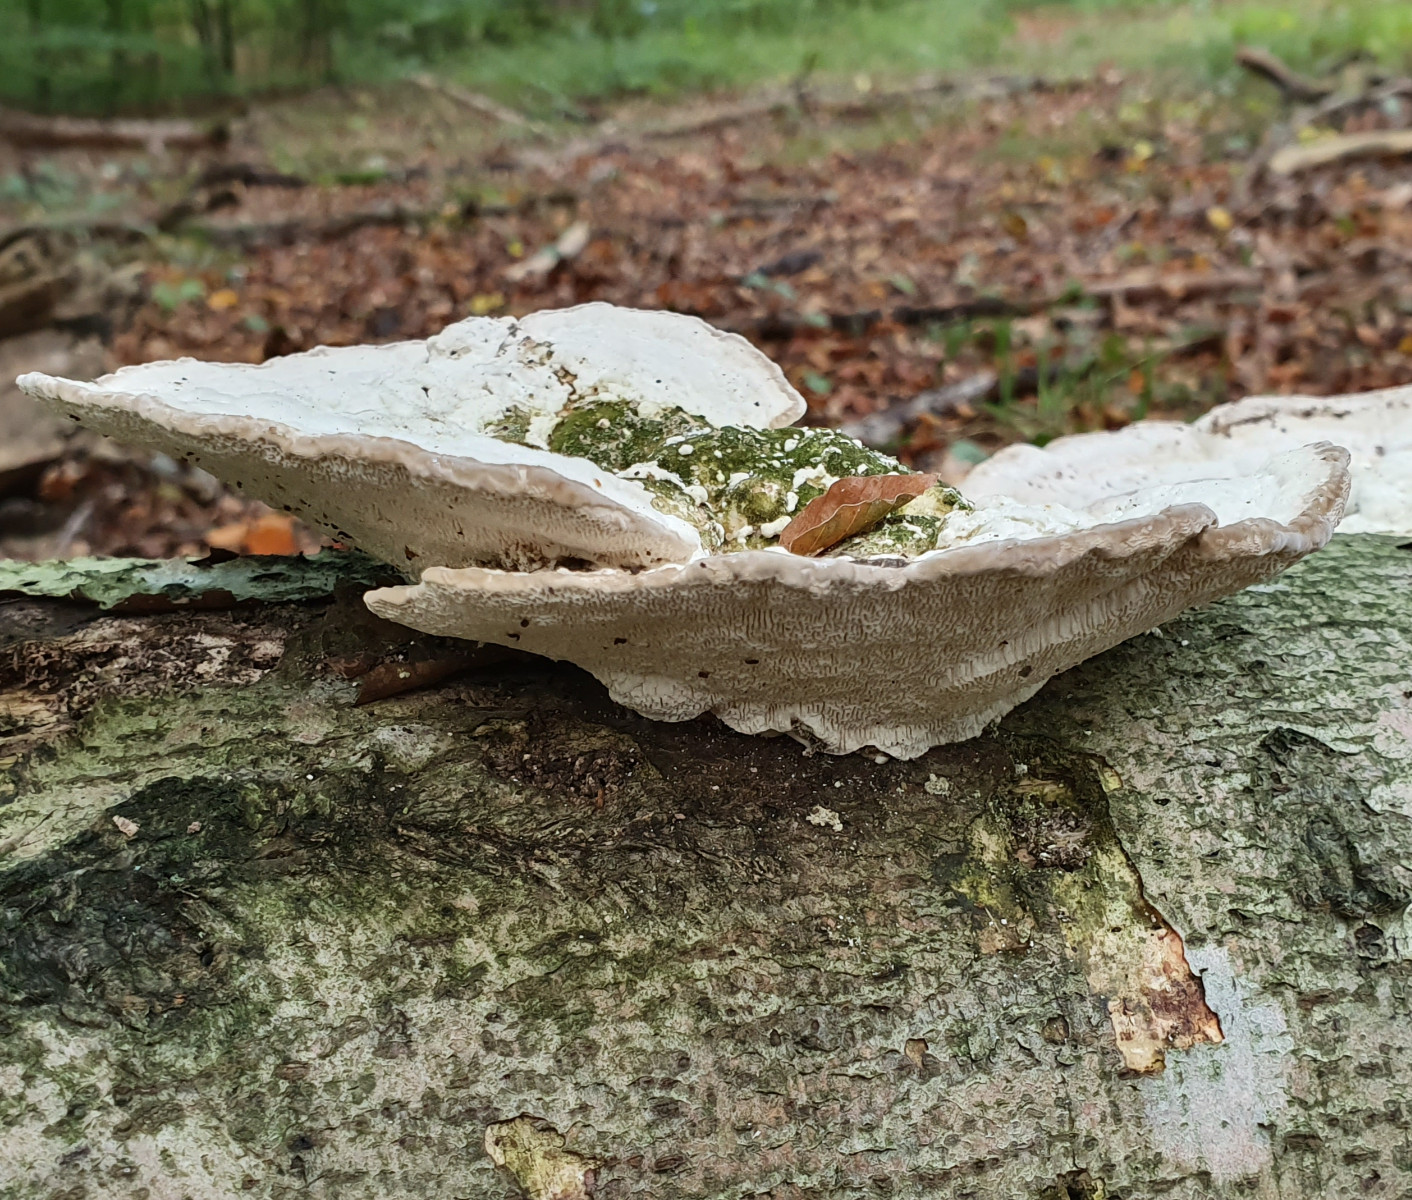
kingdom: Fungi
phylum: Basidiomycota
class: Agaricomycetes
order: Polyporales
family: Polyporaceae
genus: Trametes
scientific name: Trametes gibbosa
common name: puklet læderporesvamp
